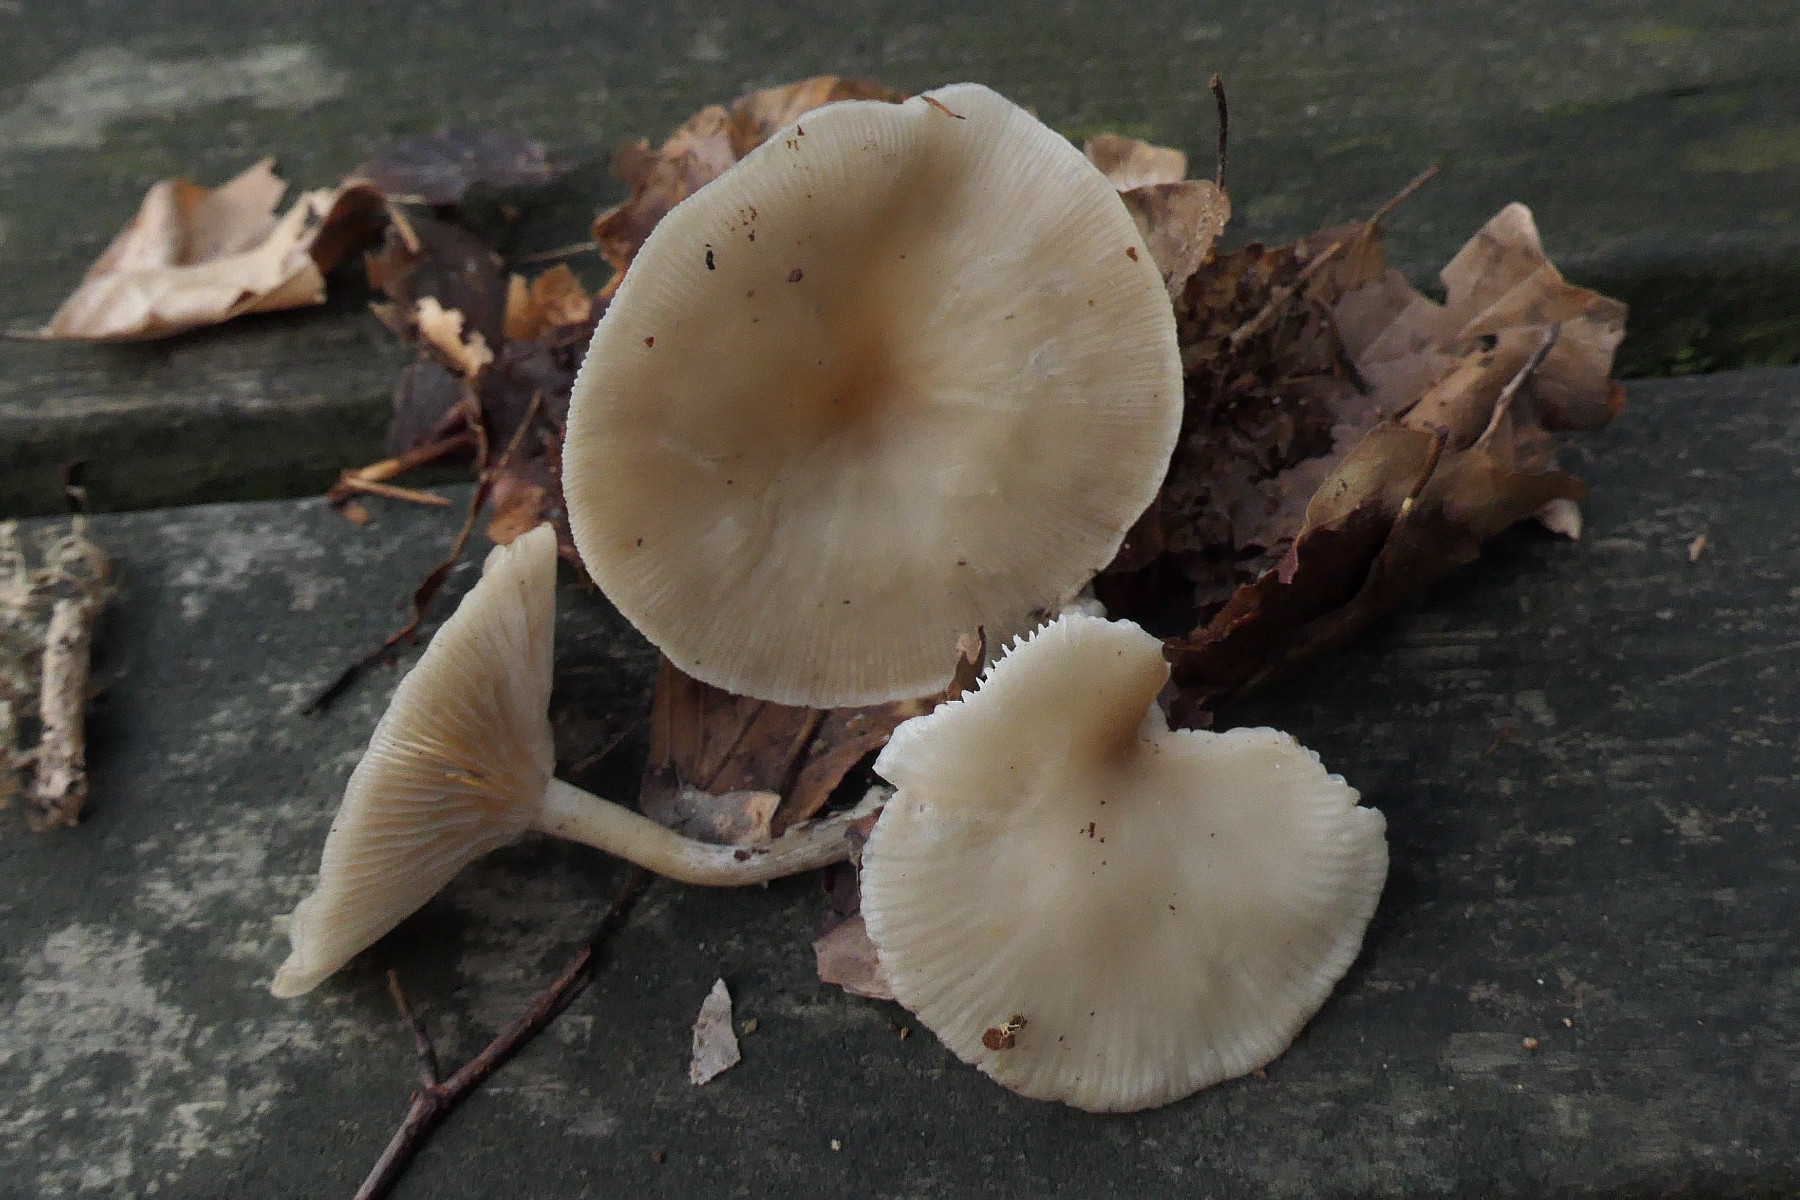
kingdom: Fungi
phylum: Basidiomycota
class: Agaricomycetes
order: Agaricales
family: Tricholomataceae
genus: Clitocybe
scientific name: Clitocybe
